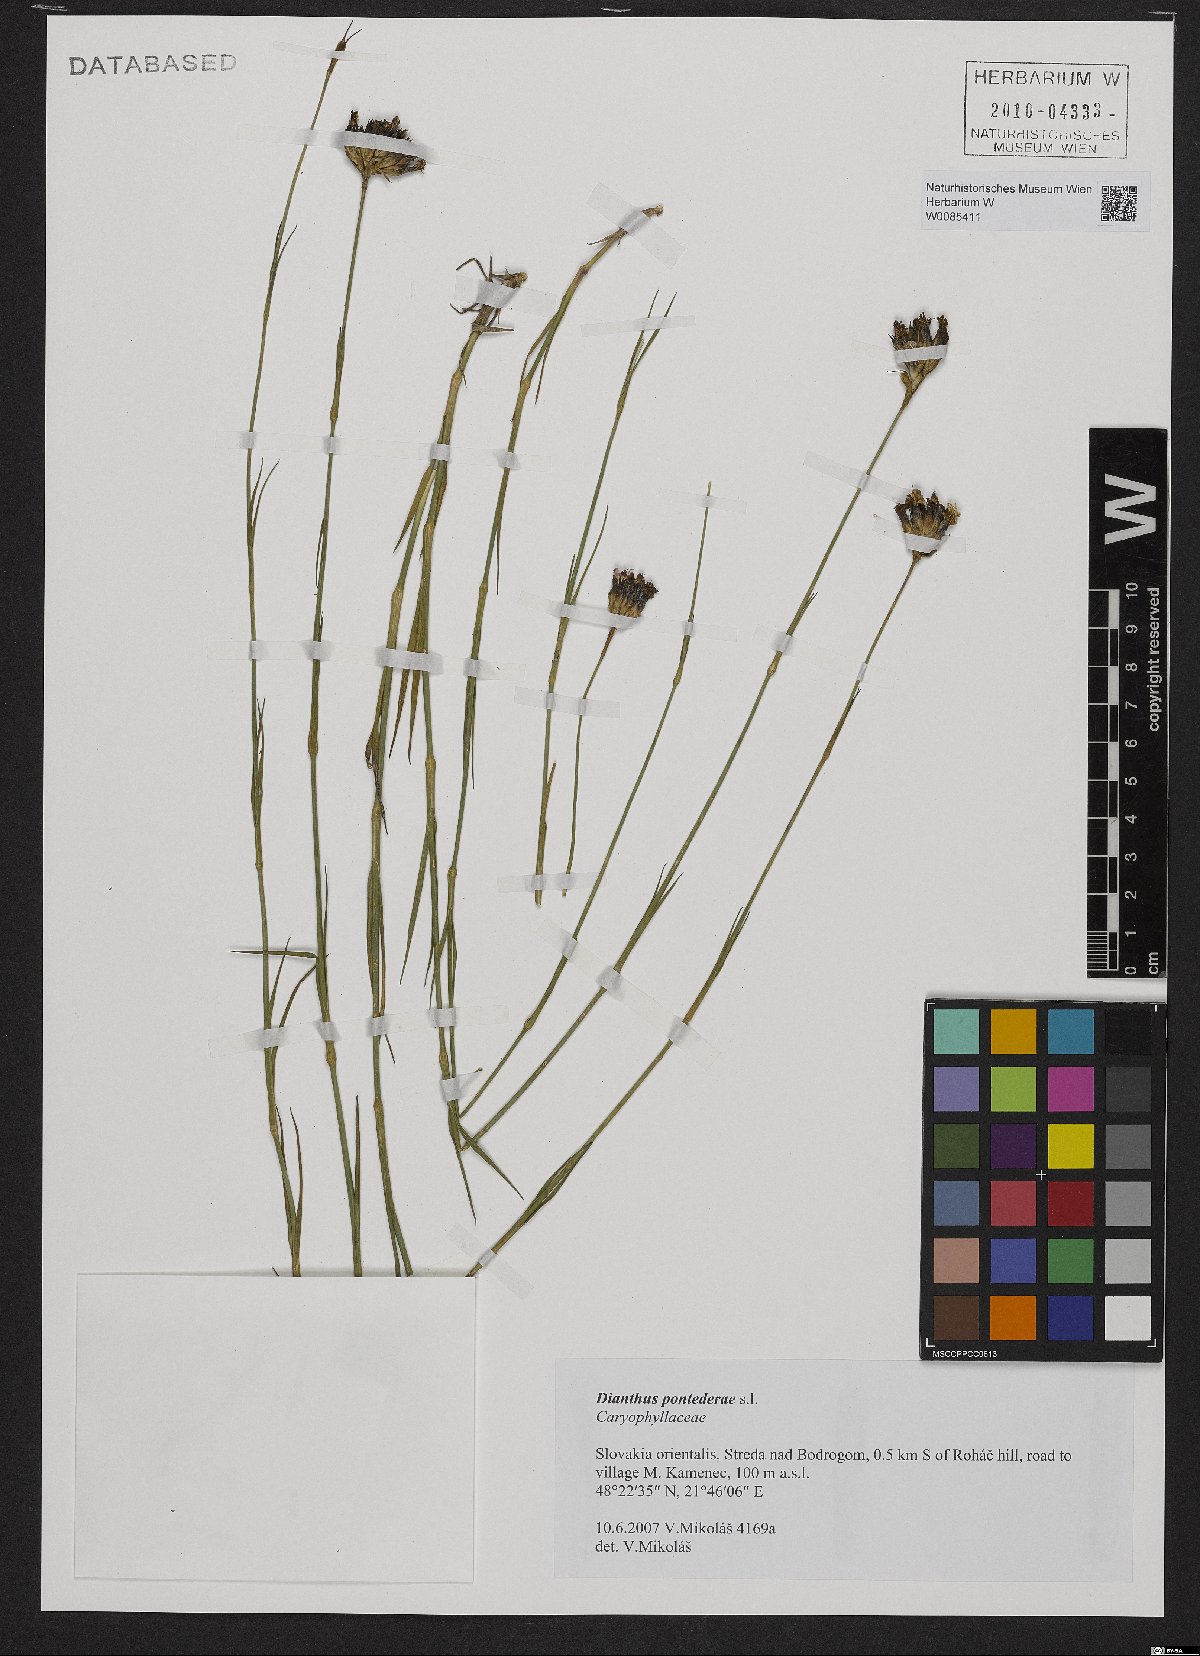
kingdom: Plantae
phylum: Tracheophyta
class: Magnoliopsida
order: Caryophyllales
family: Caryophyllaceae
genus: Dianthus
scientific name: Dianthus pontederae
